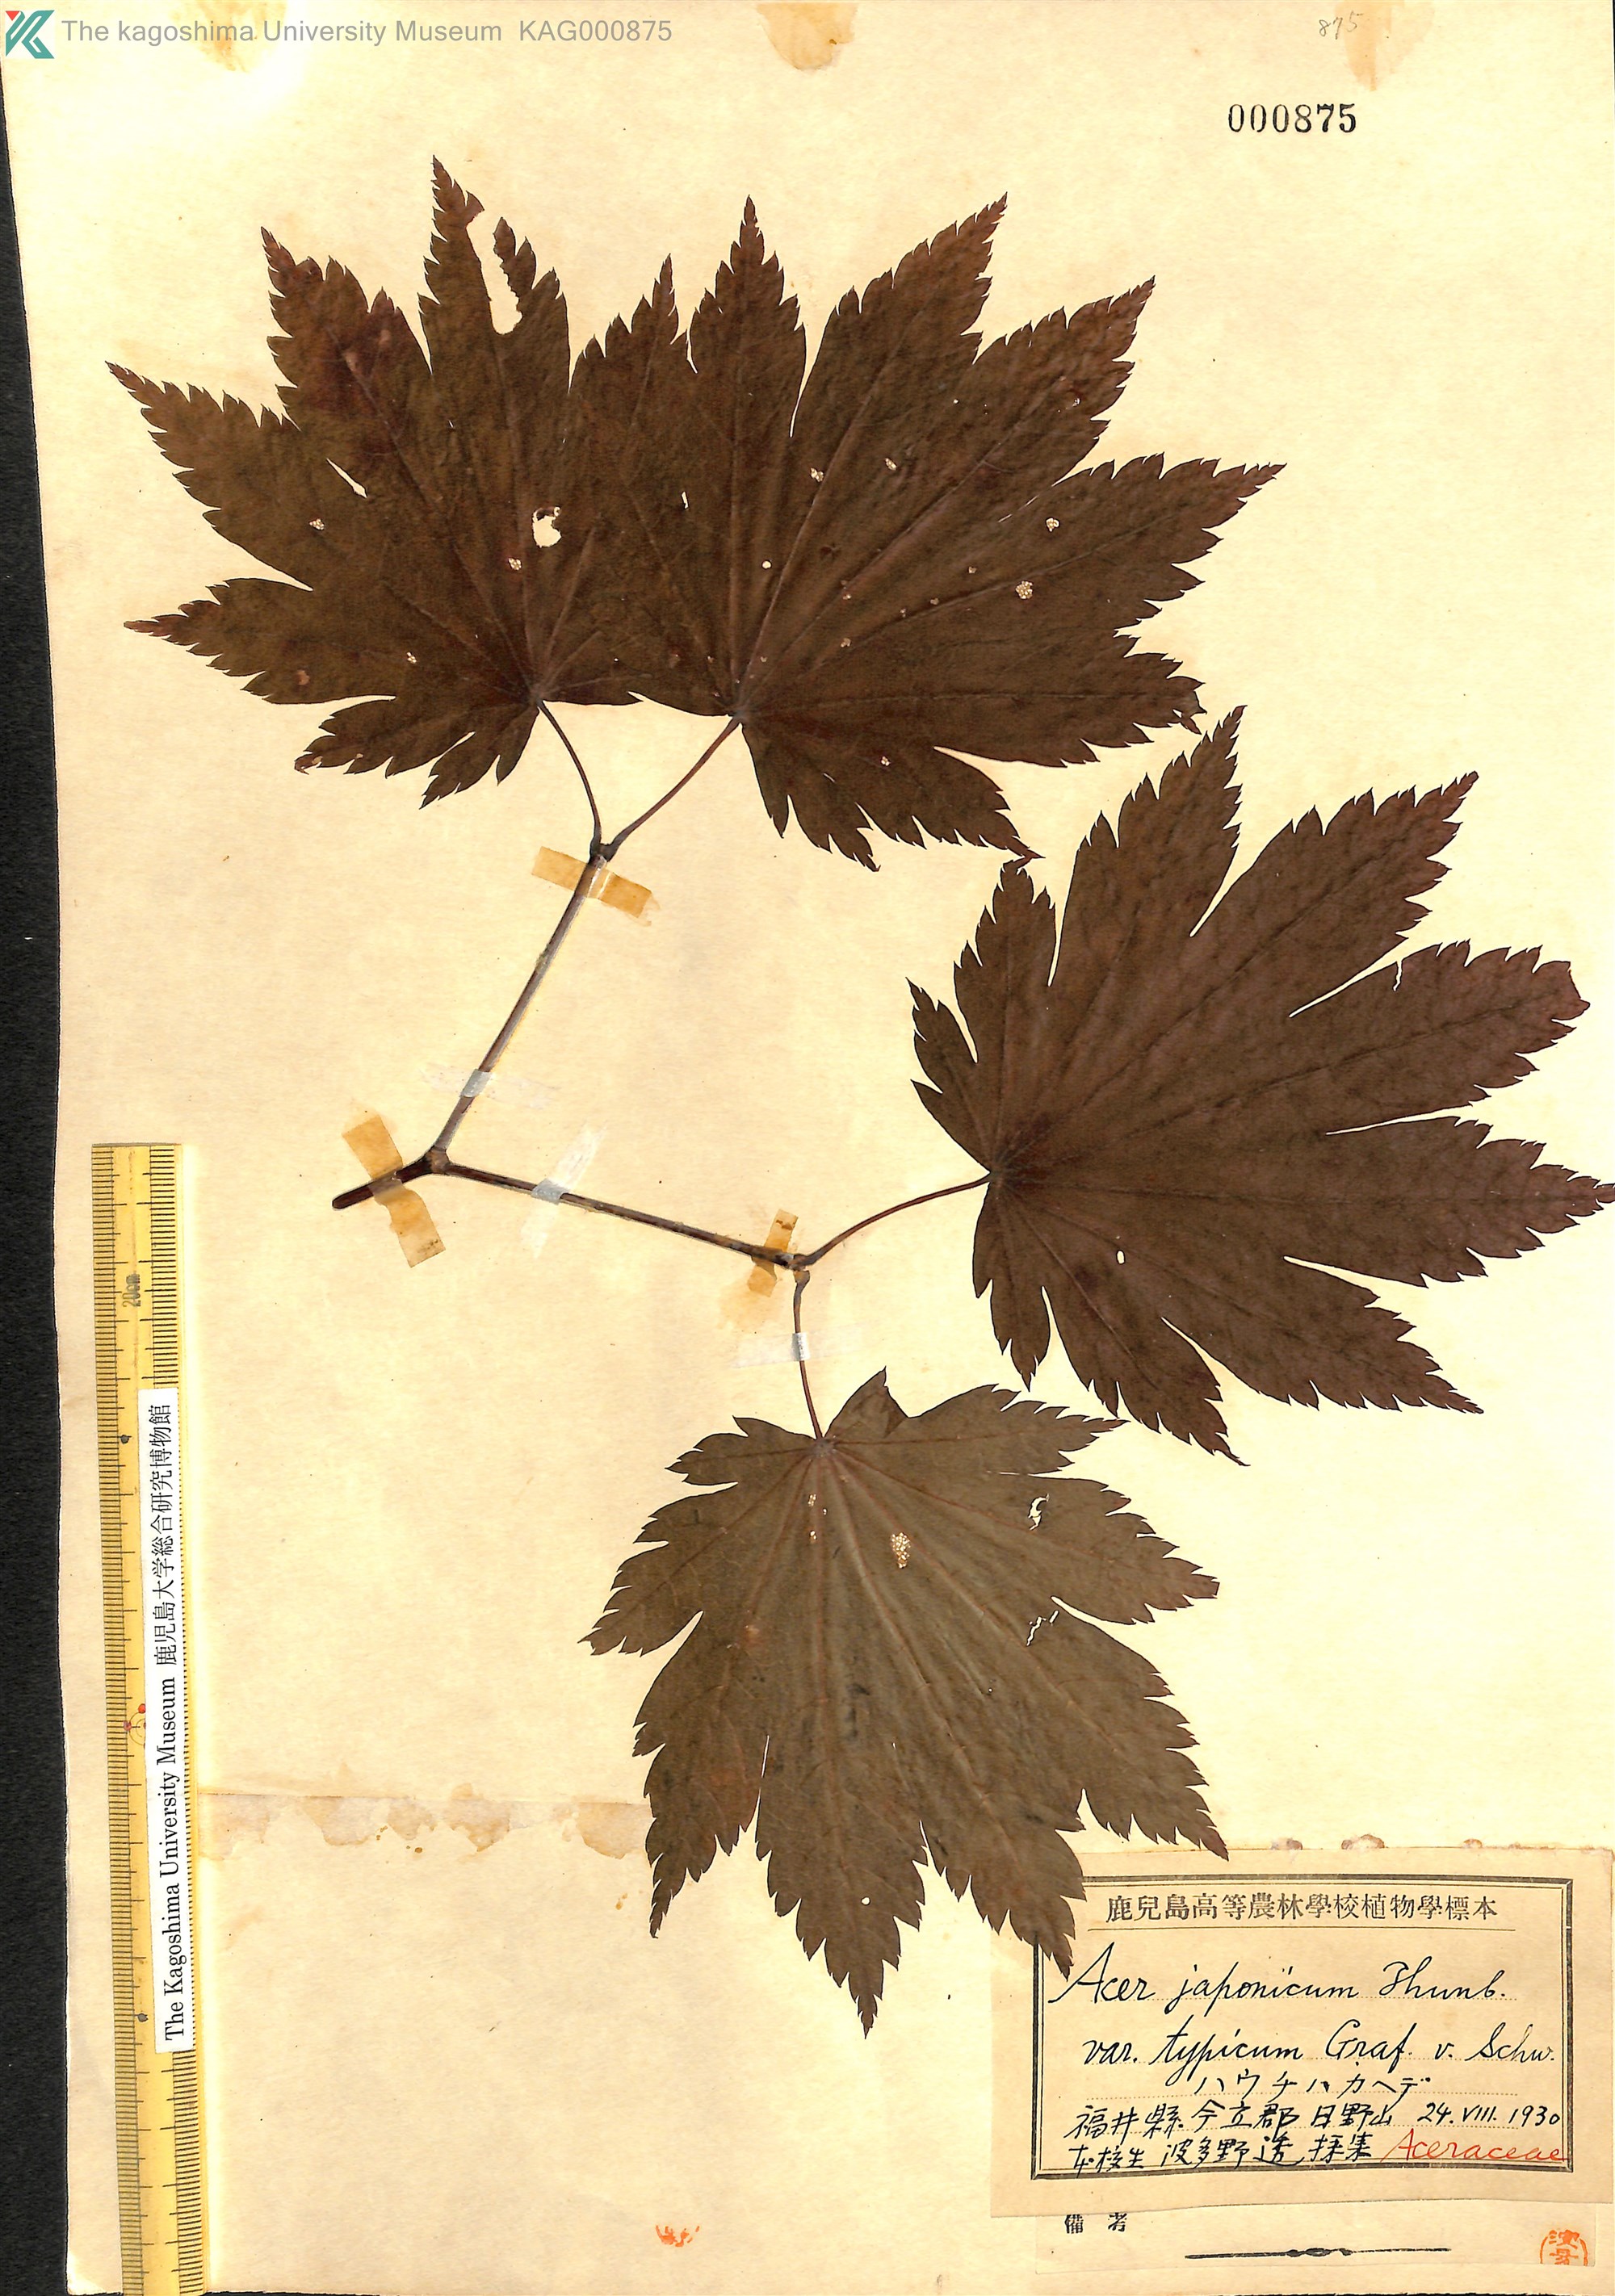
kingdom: Plantae
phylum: Tracheophyta
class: Magnoliopsida
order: Sapindales
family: Sapindaceae
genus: Acer
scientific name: Acer japonicum
